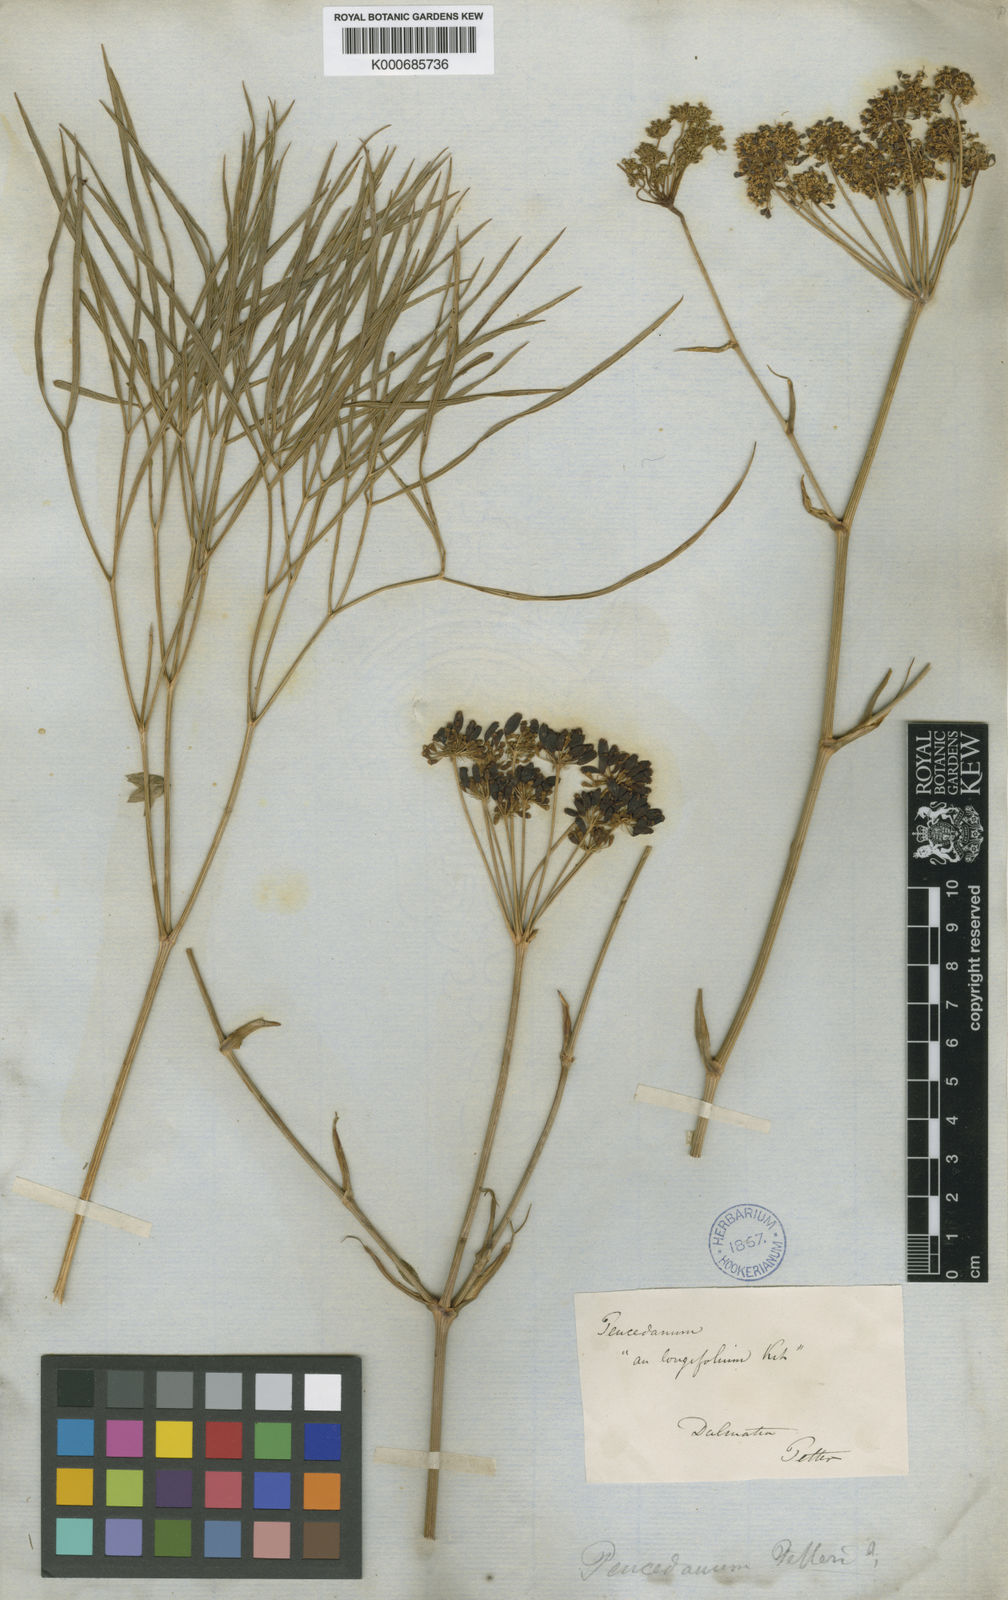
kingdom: Plantae
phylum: Tracheophyta
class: Magnoliopsida
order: Apiales
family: Apiaceae
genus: Peucedanum
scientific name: Peucedanum coriaceum
